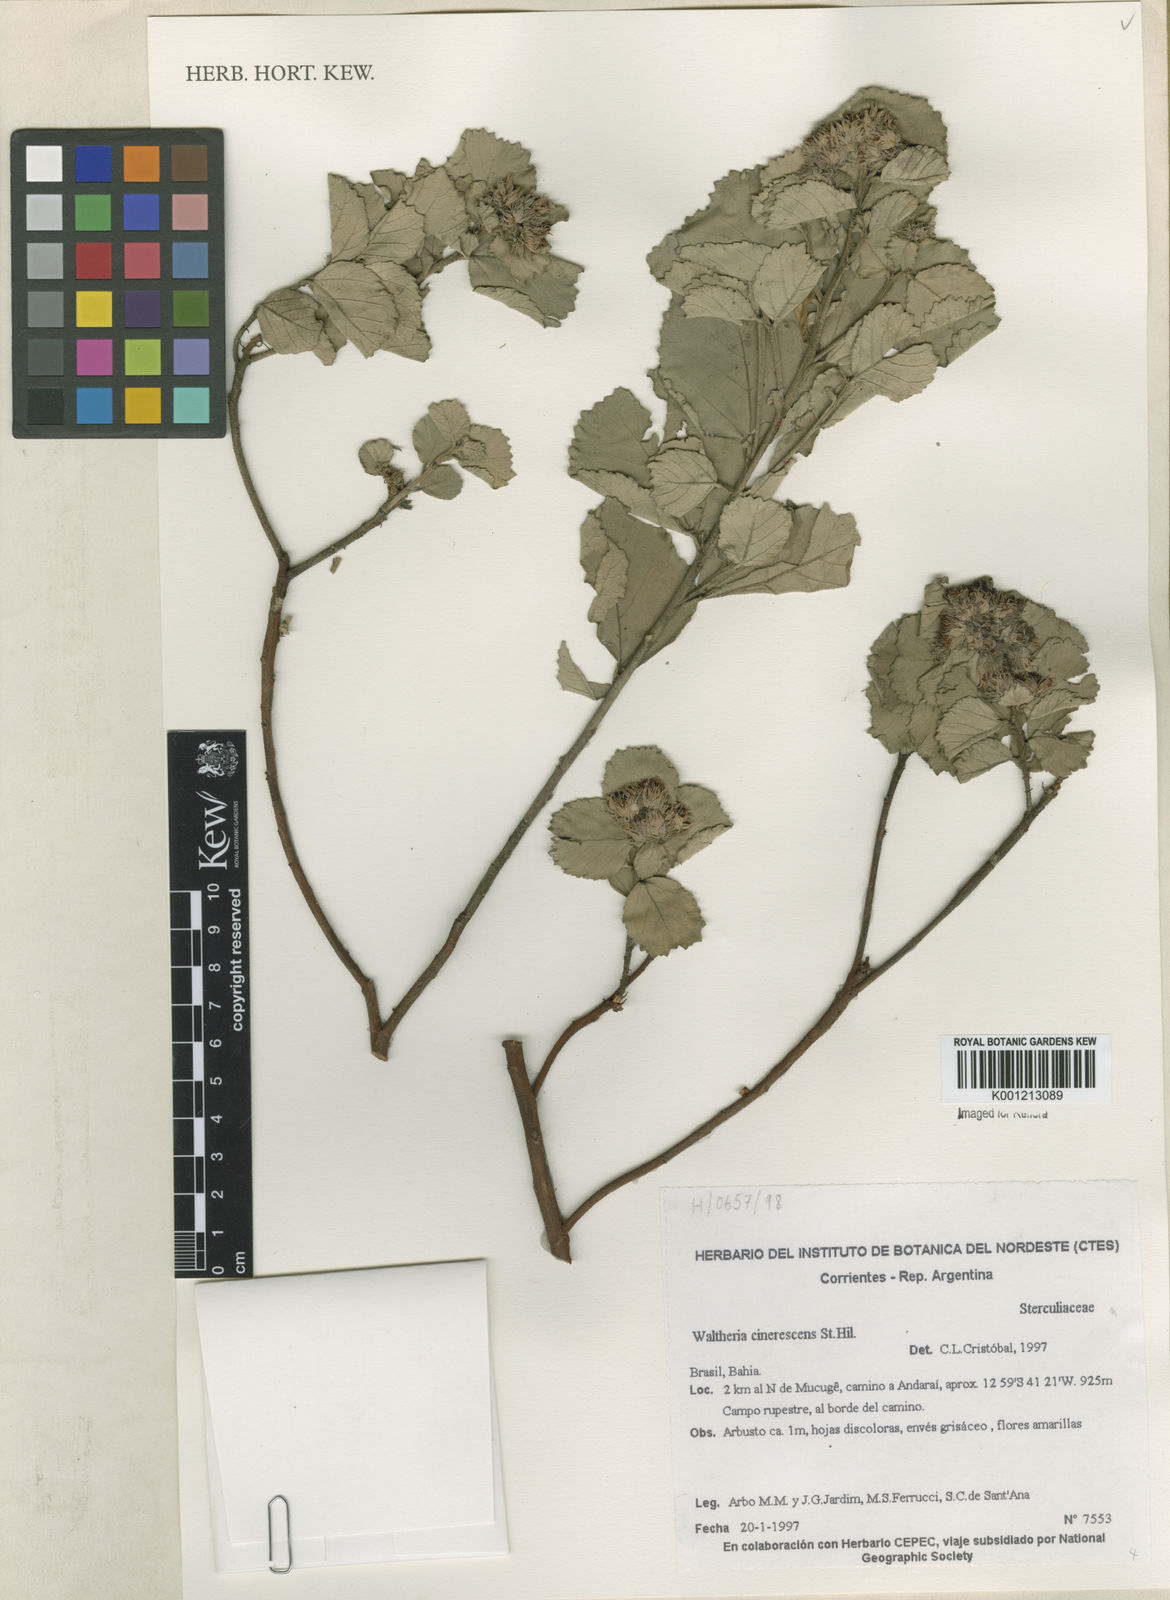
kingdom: Plantae
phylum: Tracheophyta
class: Magnoliopsida
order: Malvales
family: Malvaceae
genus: Waltheria
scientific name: Waltheria cinerescens
